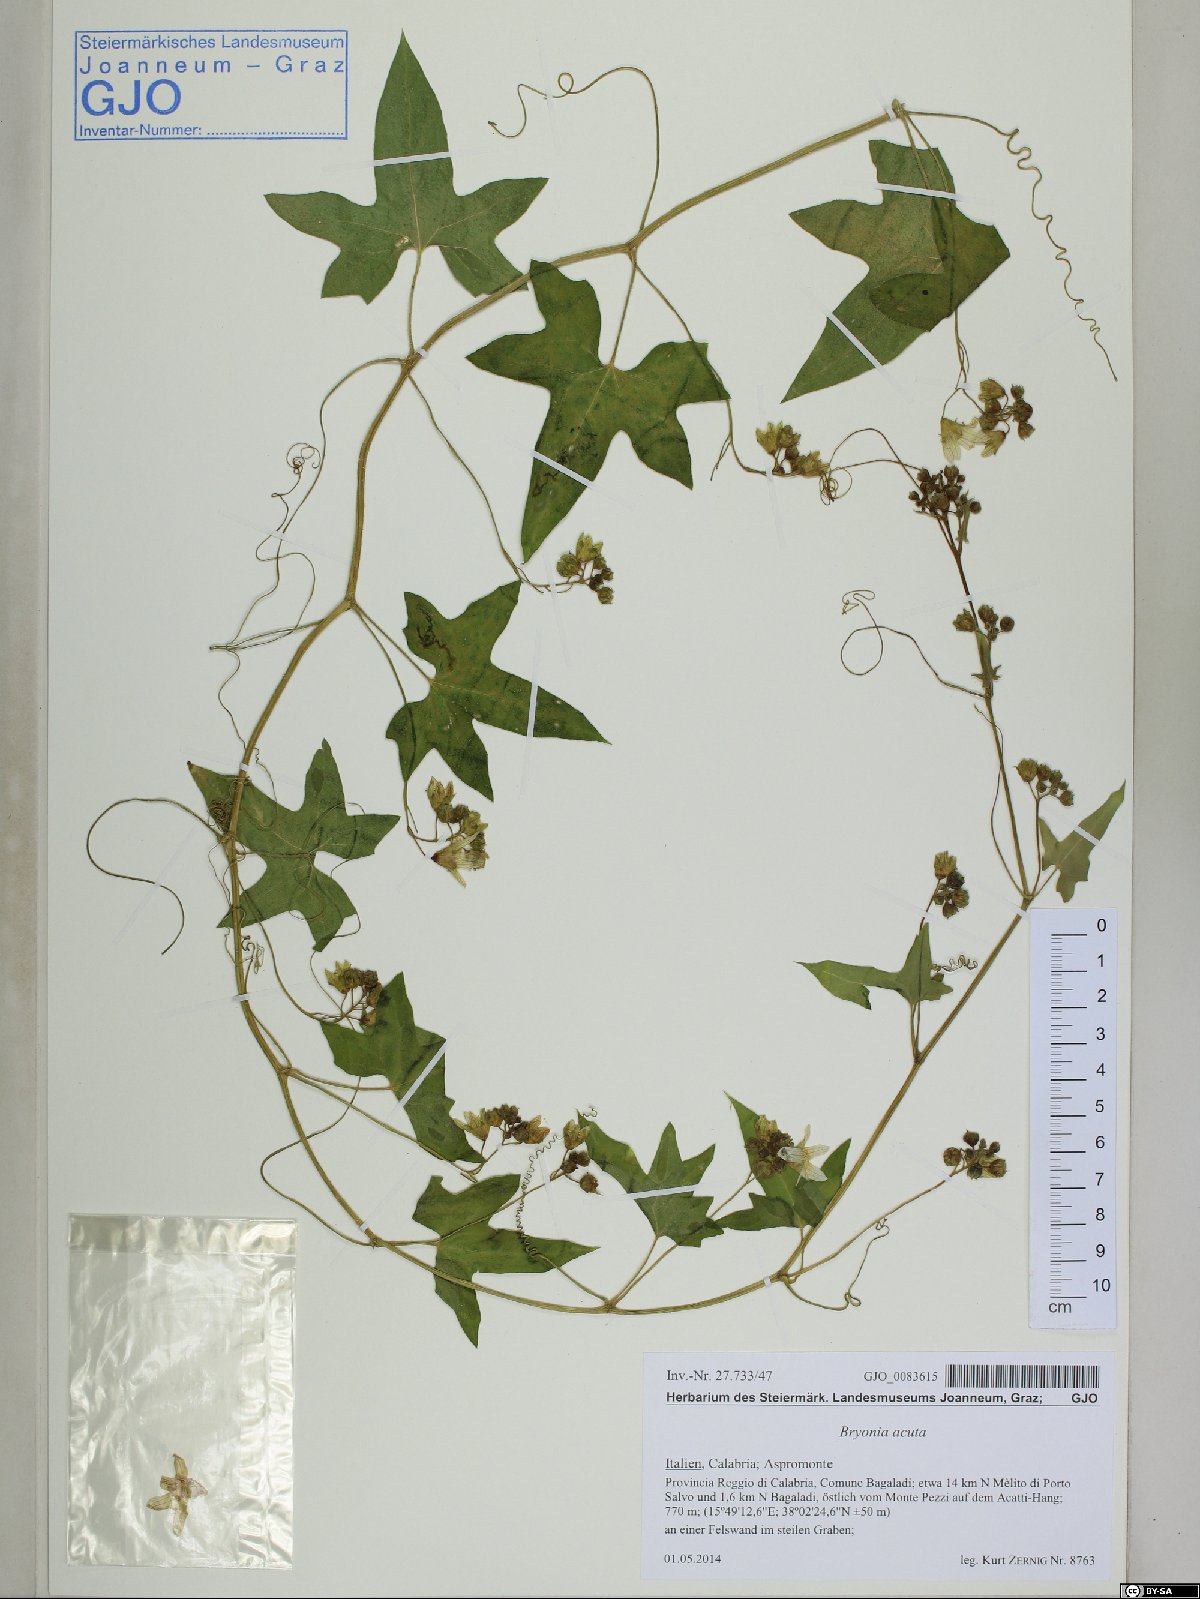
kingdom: Plantae
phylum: Tracheophyta
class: Magnoliopsida
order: Cucurbitales
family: Cucurbitaceae
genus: Bryonia
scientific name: Bryonia acuta
